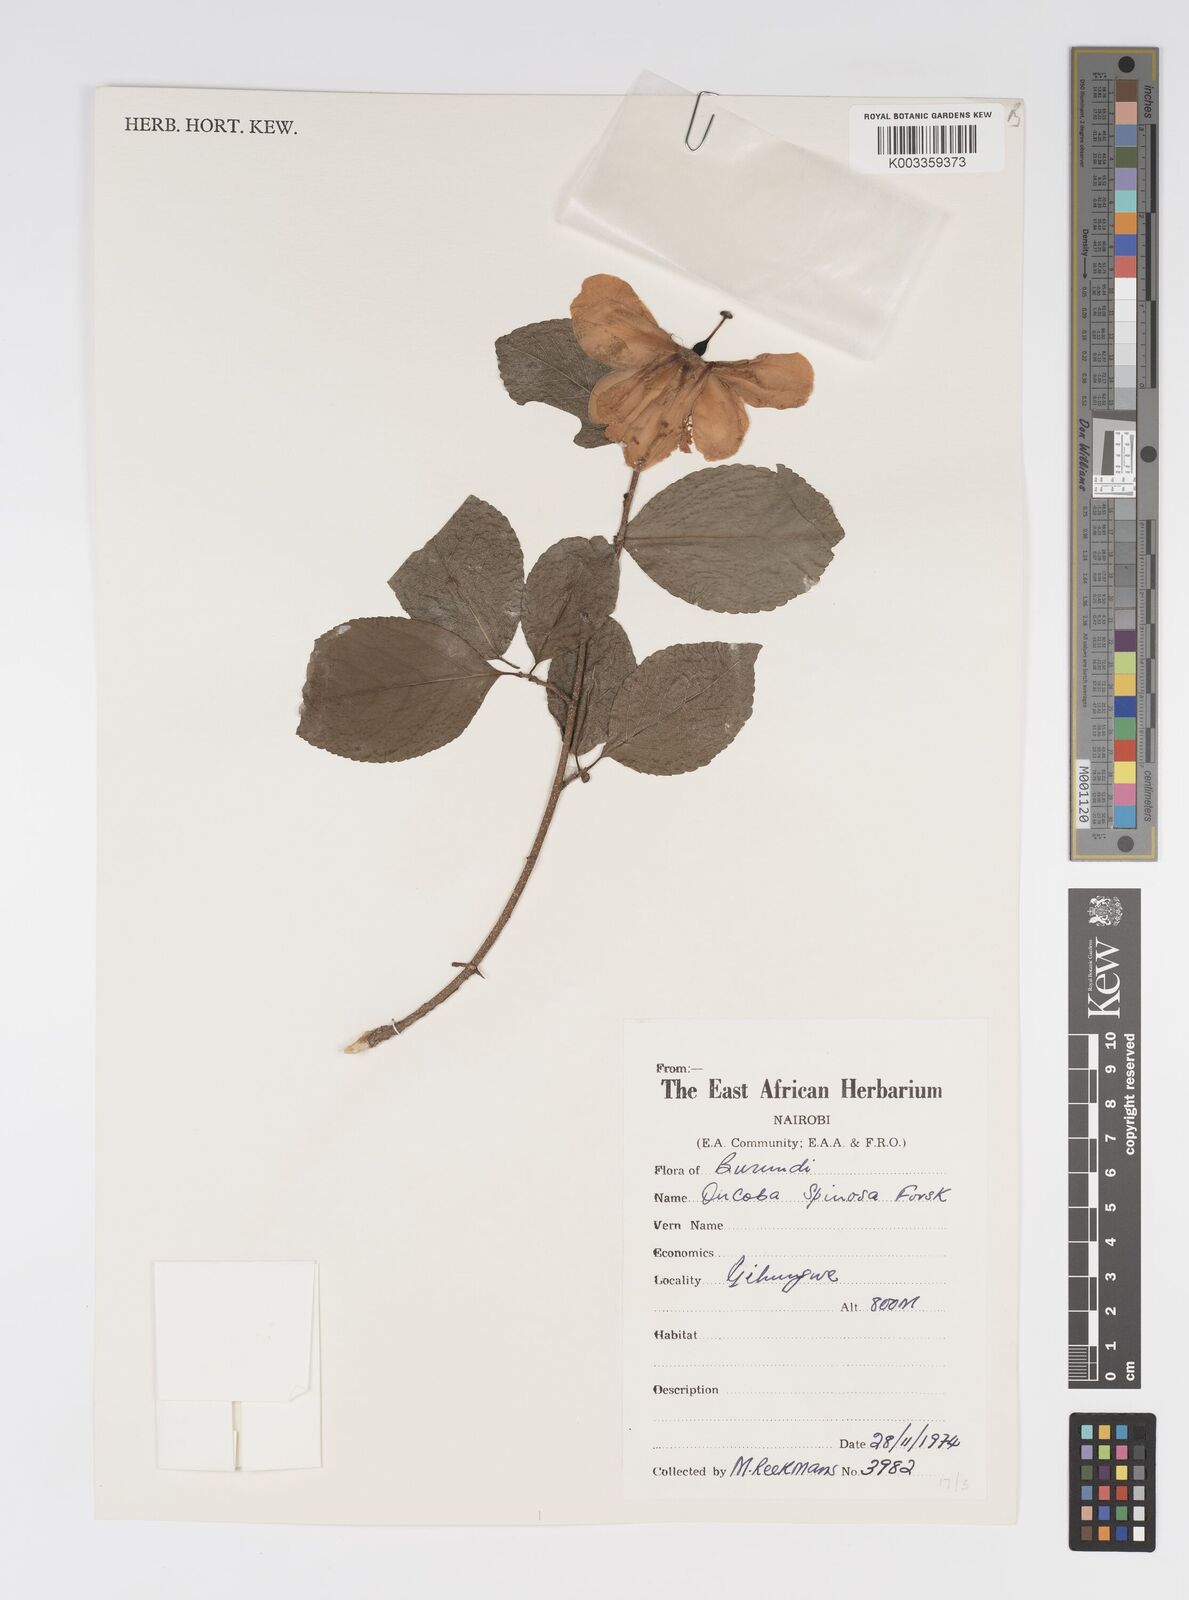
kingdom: Plantae
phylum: Tracheophyta
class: Magnoliopsida
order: Malpighiales
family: Salicaceae
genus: Oncoba
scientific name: Oncoba spinosa
